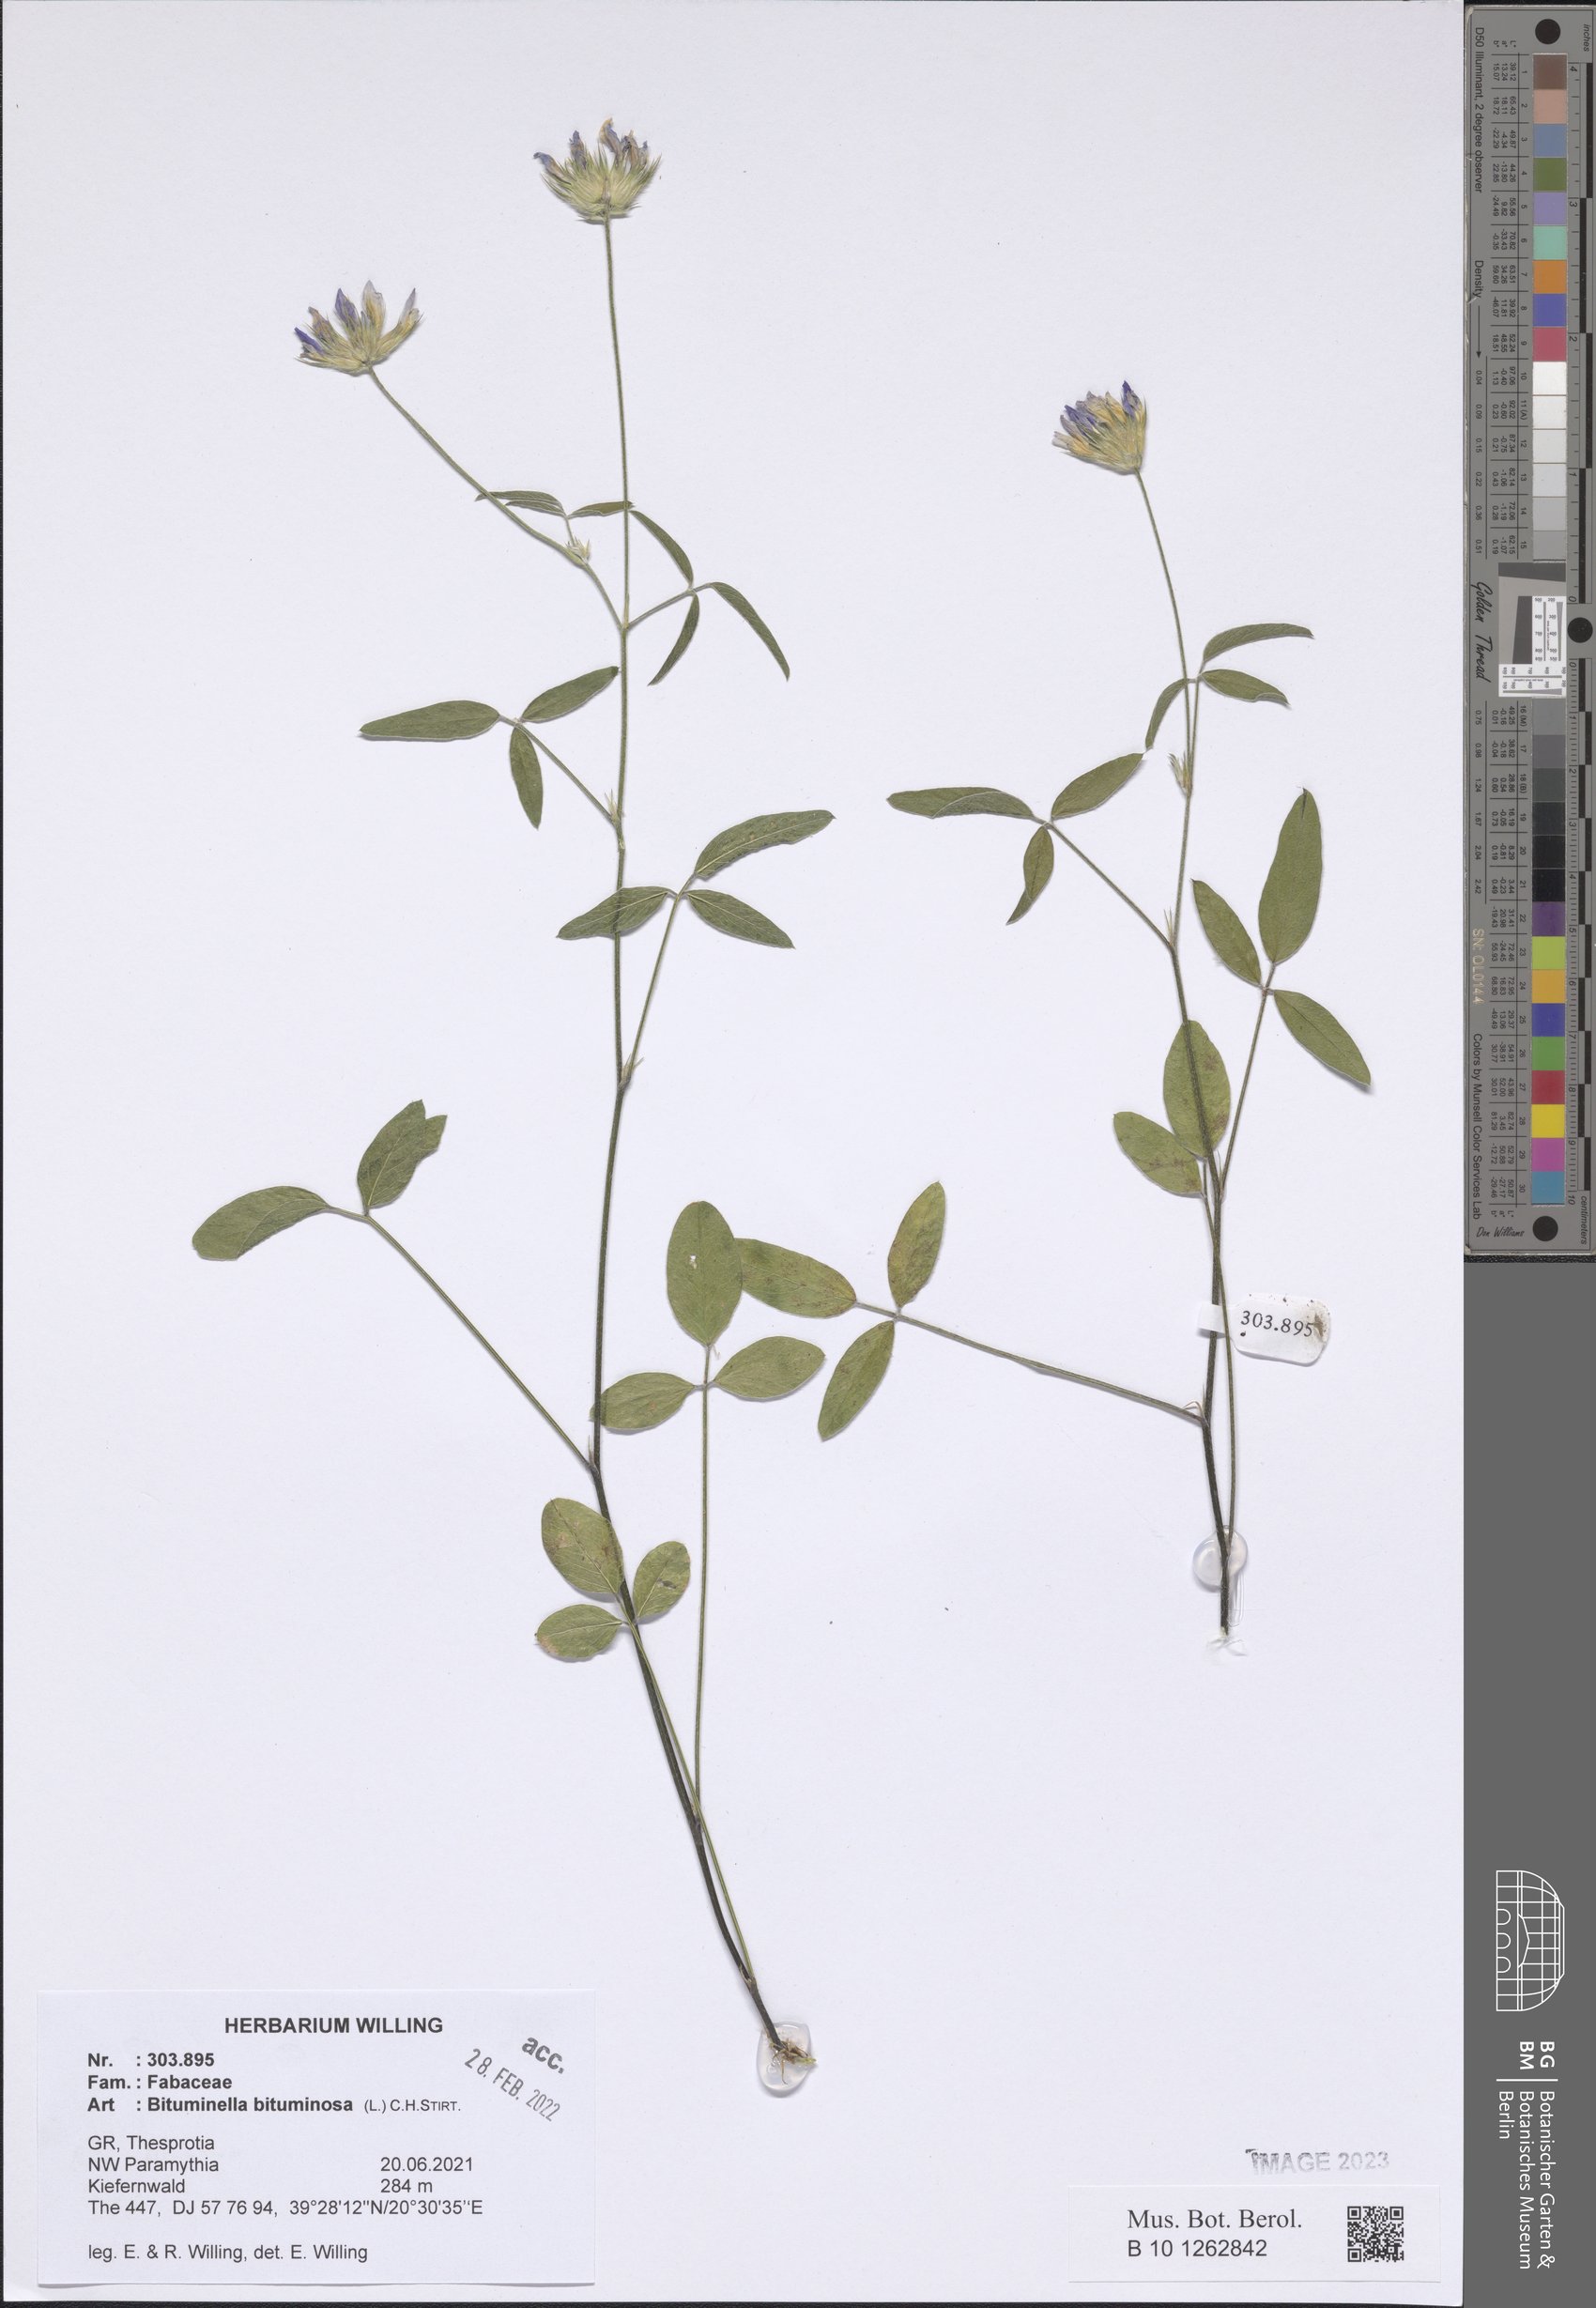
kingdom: Plantae
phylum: Tracheophyta
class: Magnoliopsida
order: Fabales
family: Fabaceae
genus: Bituminaria
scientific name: Bituminaria bituminosa
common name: Arabian pea
